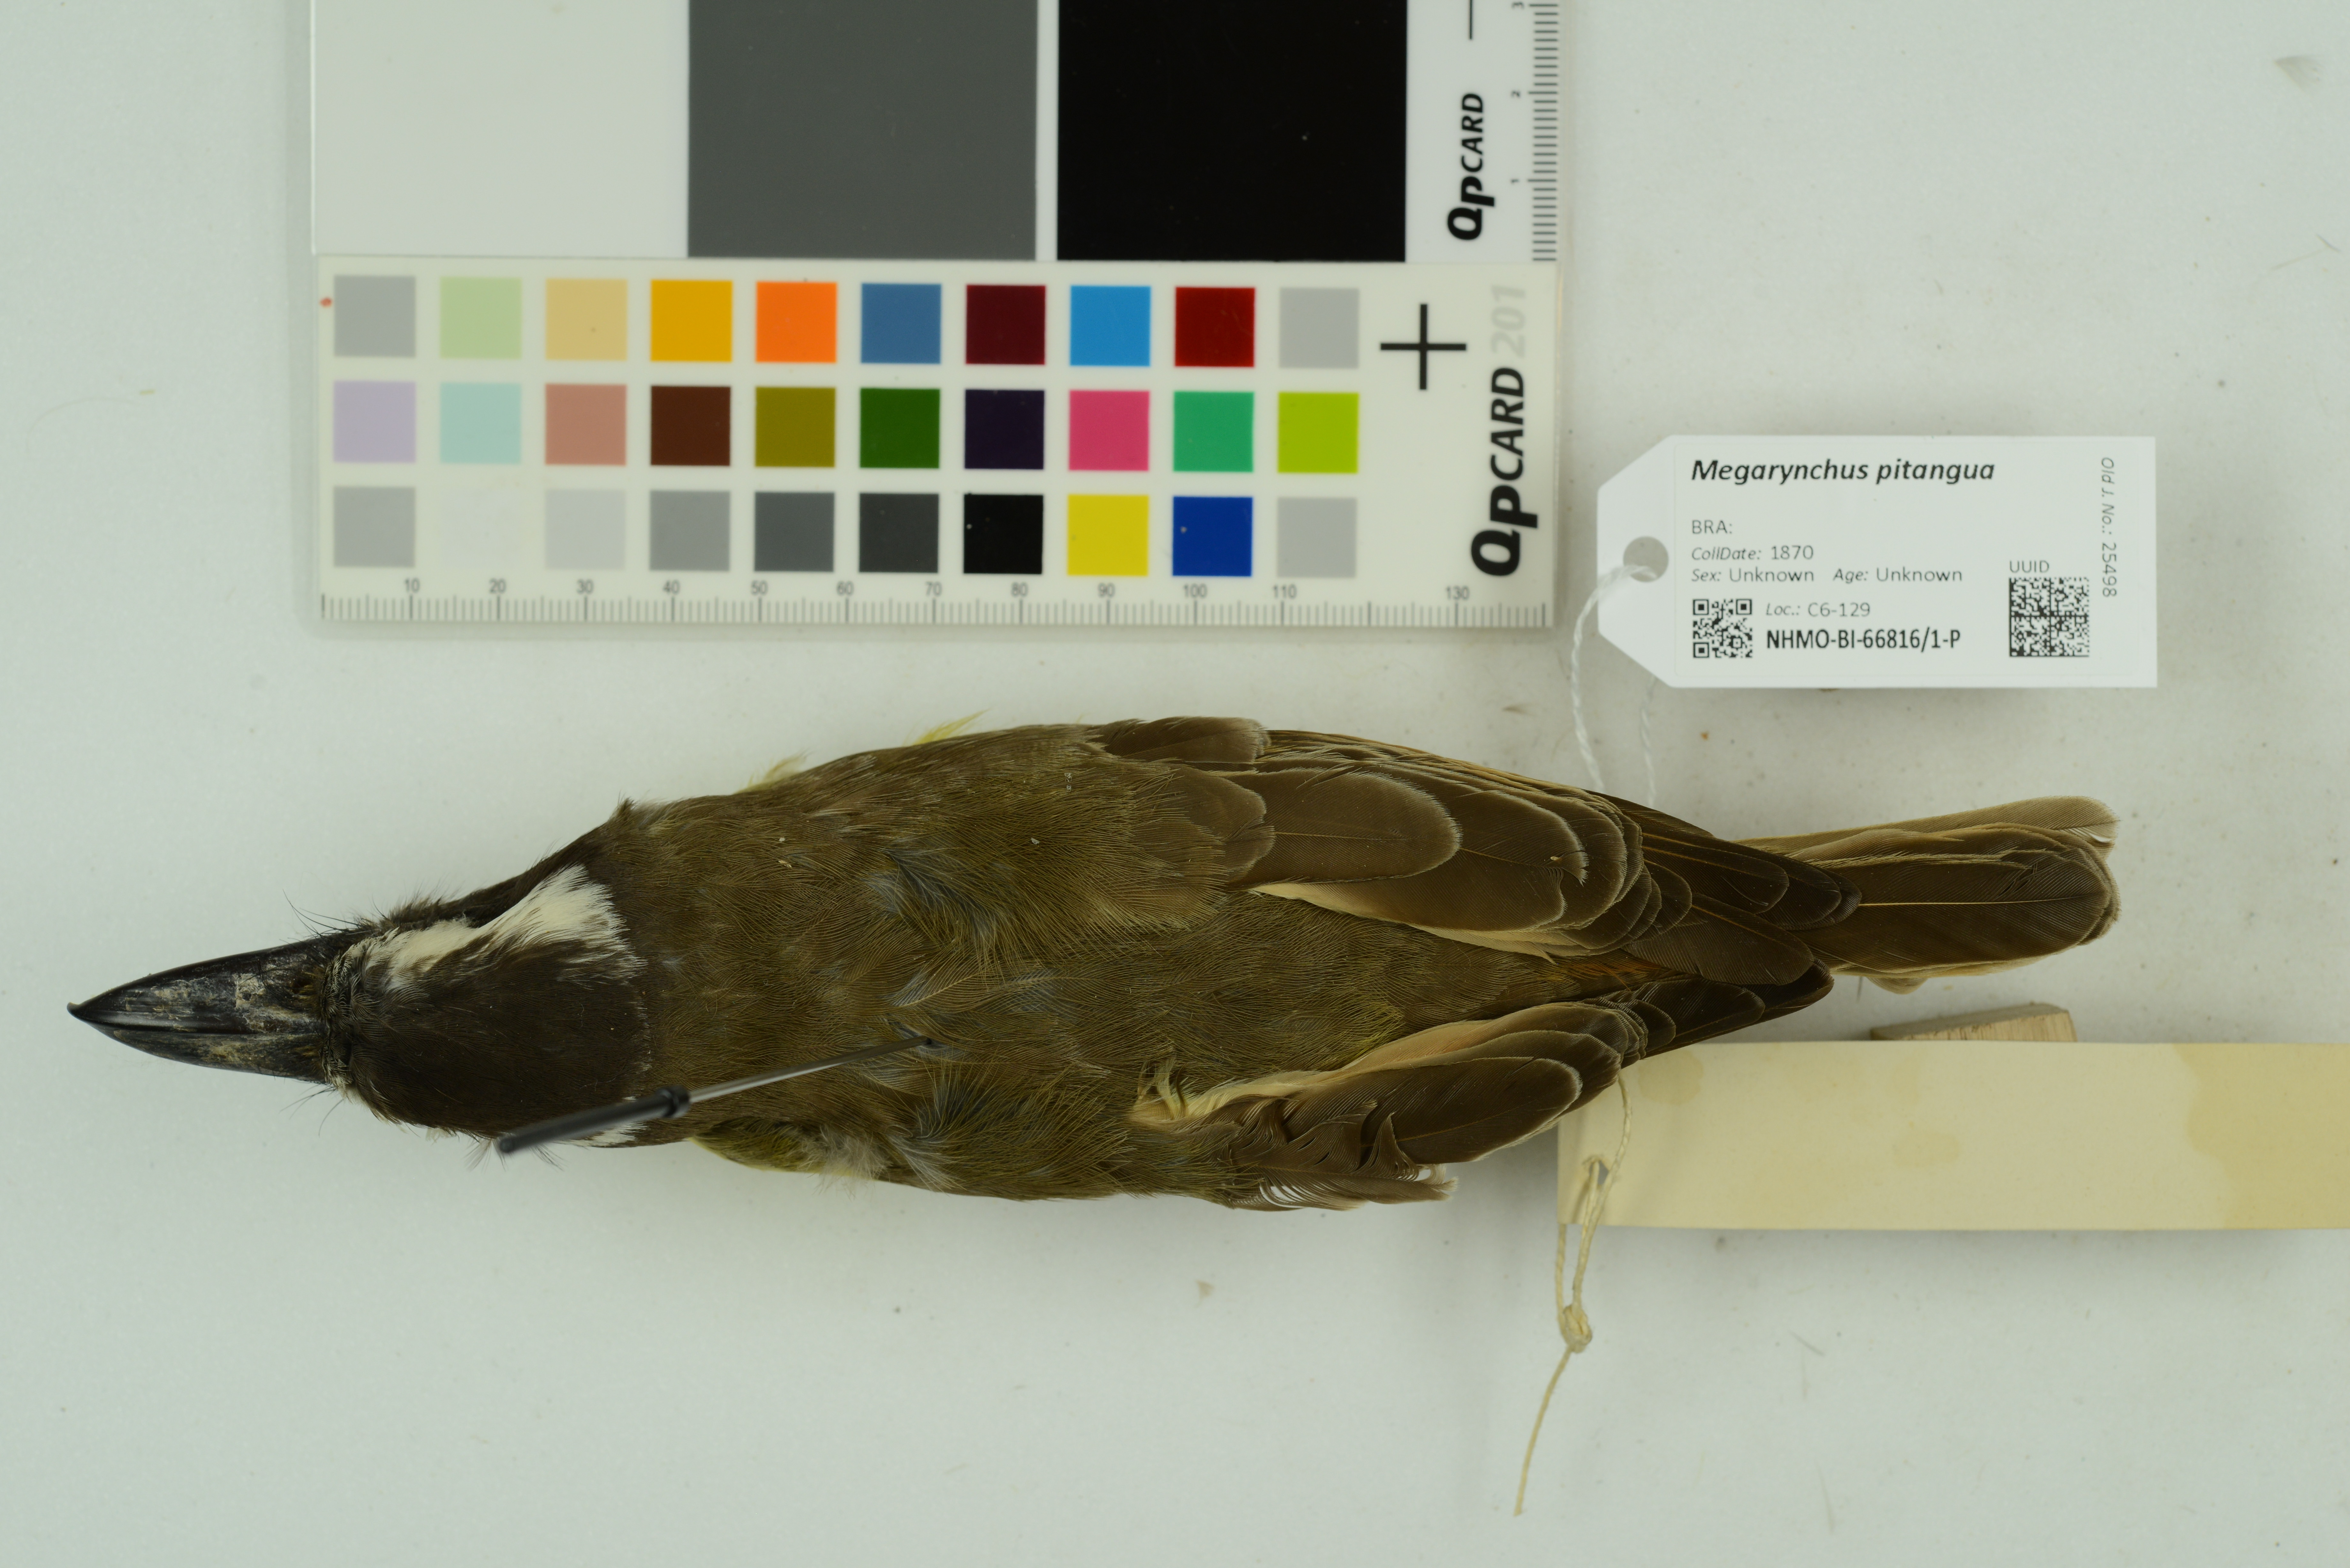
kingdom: Animalia
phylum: Chordata
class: Aves
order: Passeriformes
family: Tyrannidae
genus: Megarynchus
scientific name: Megarynchus pitangua
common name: Boat-billed flycatcher
